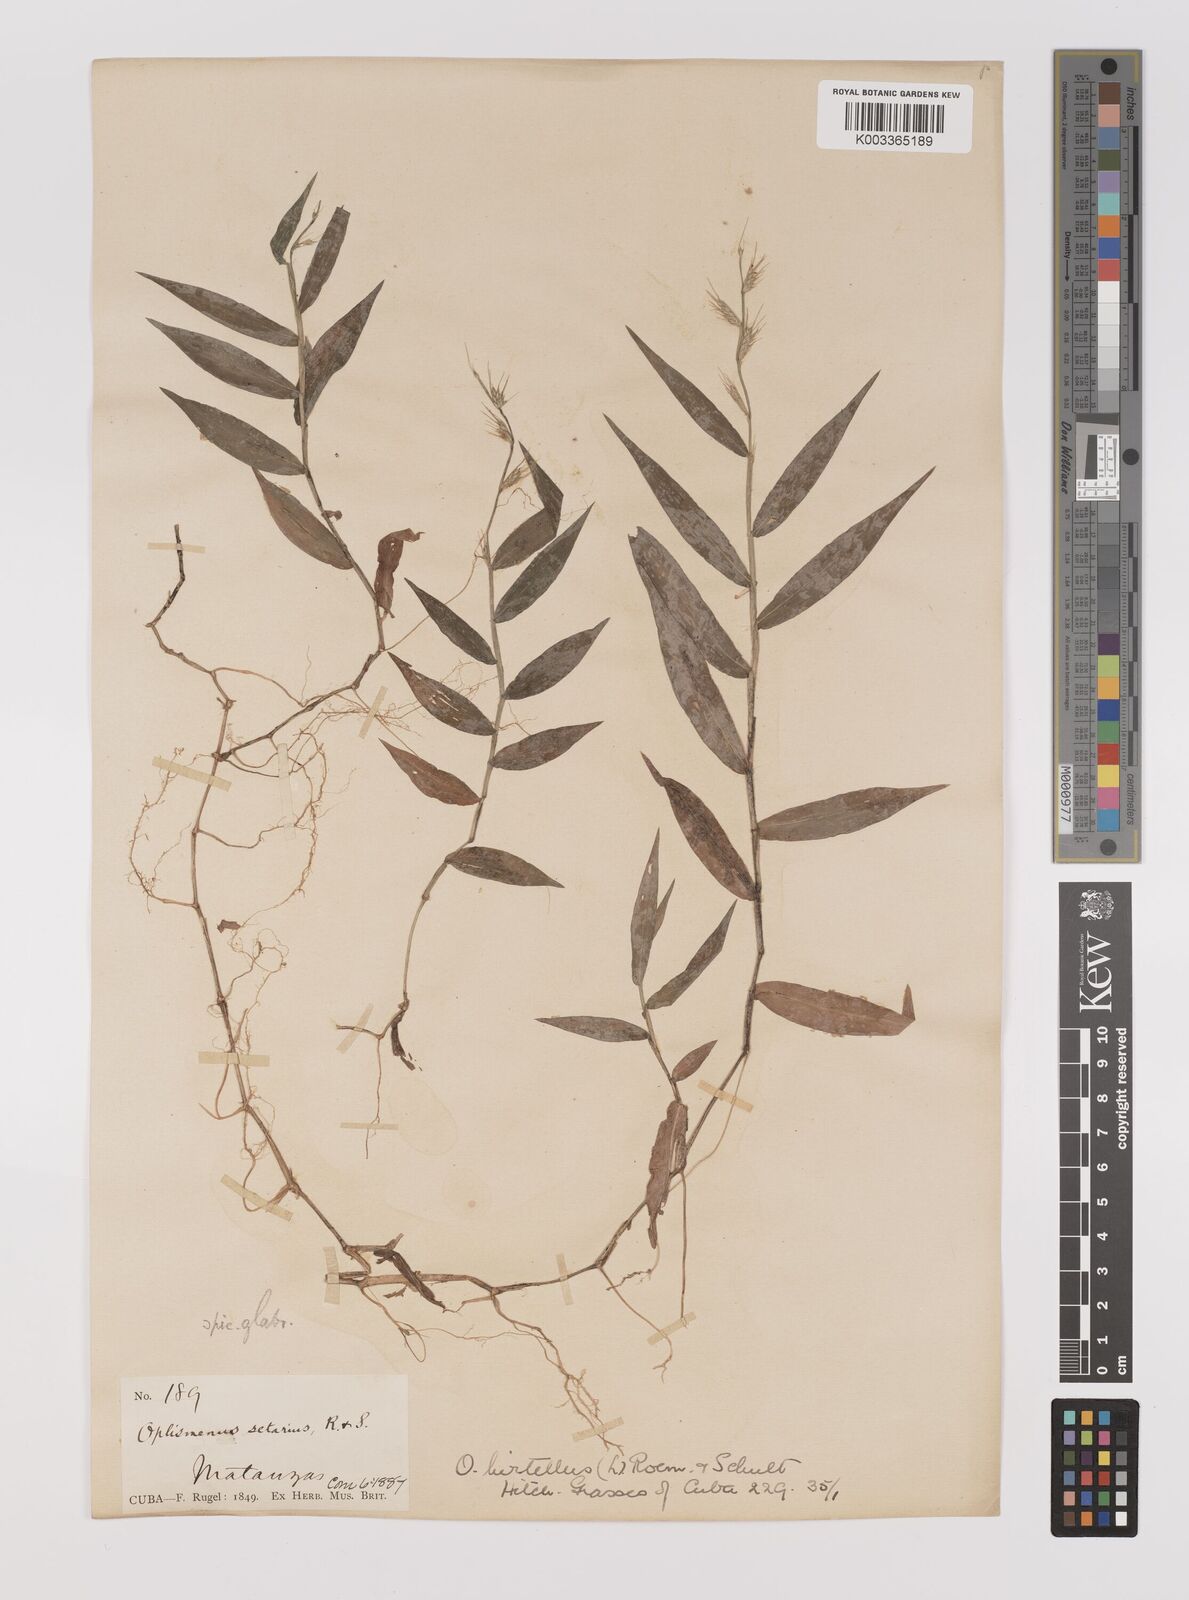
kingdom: Plantae
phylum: Tracheophyta
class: Liliopsida
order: Poales
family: Poaceae
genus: Oplismenus
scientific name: Oplismenus hirtellus
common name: Basketgrass
